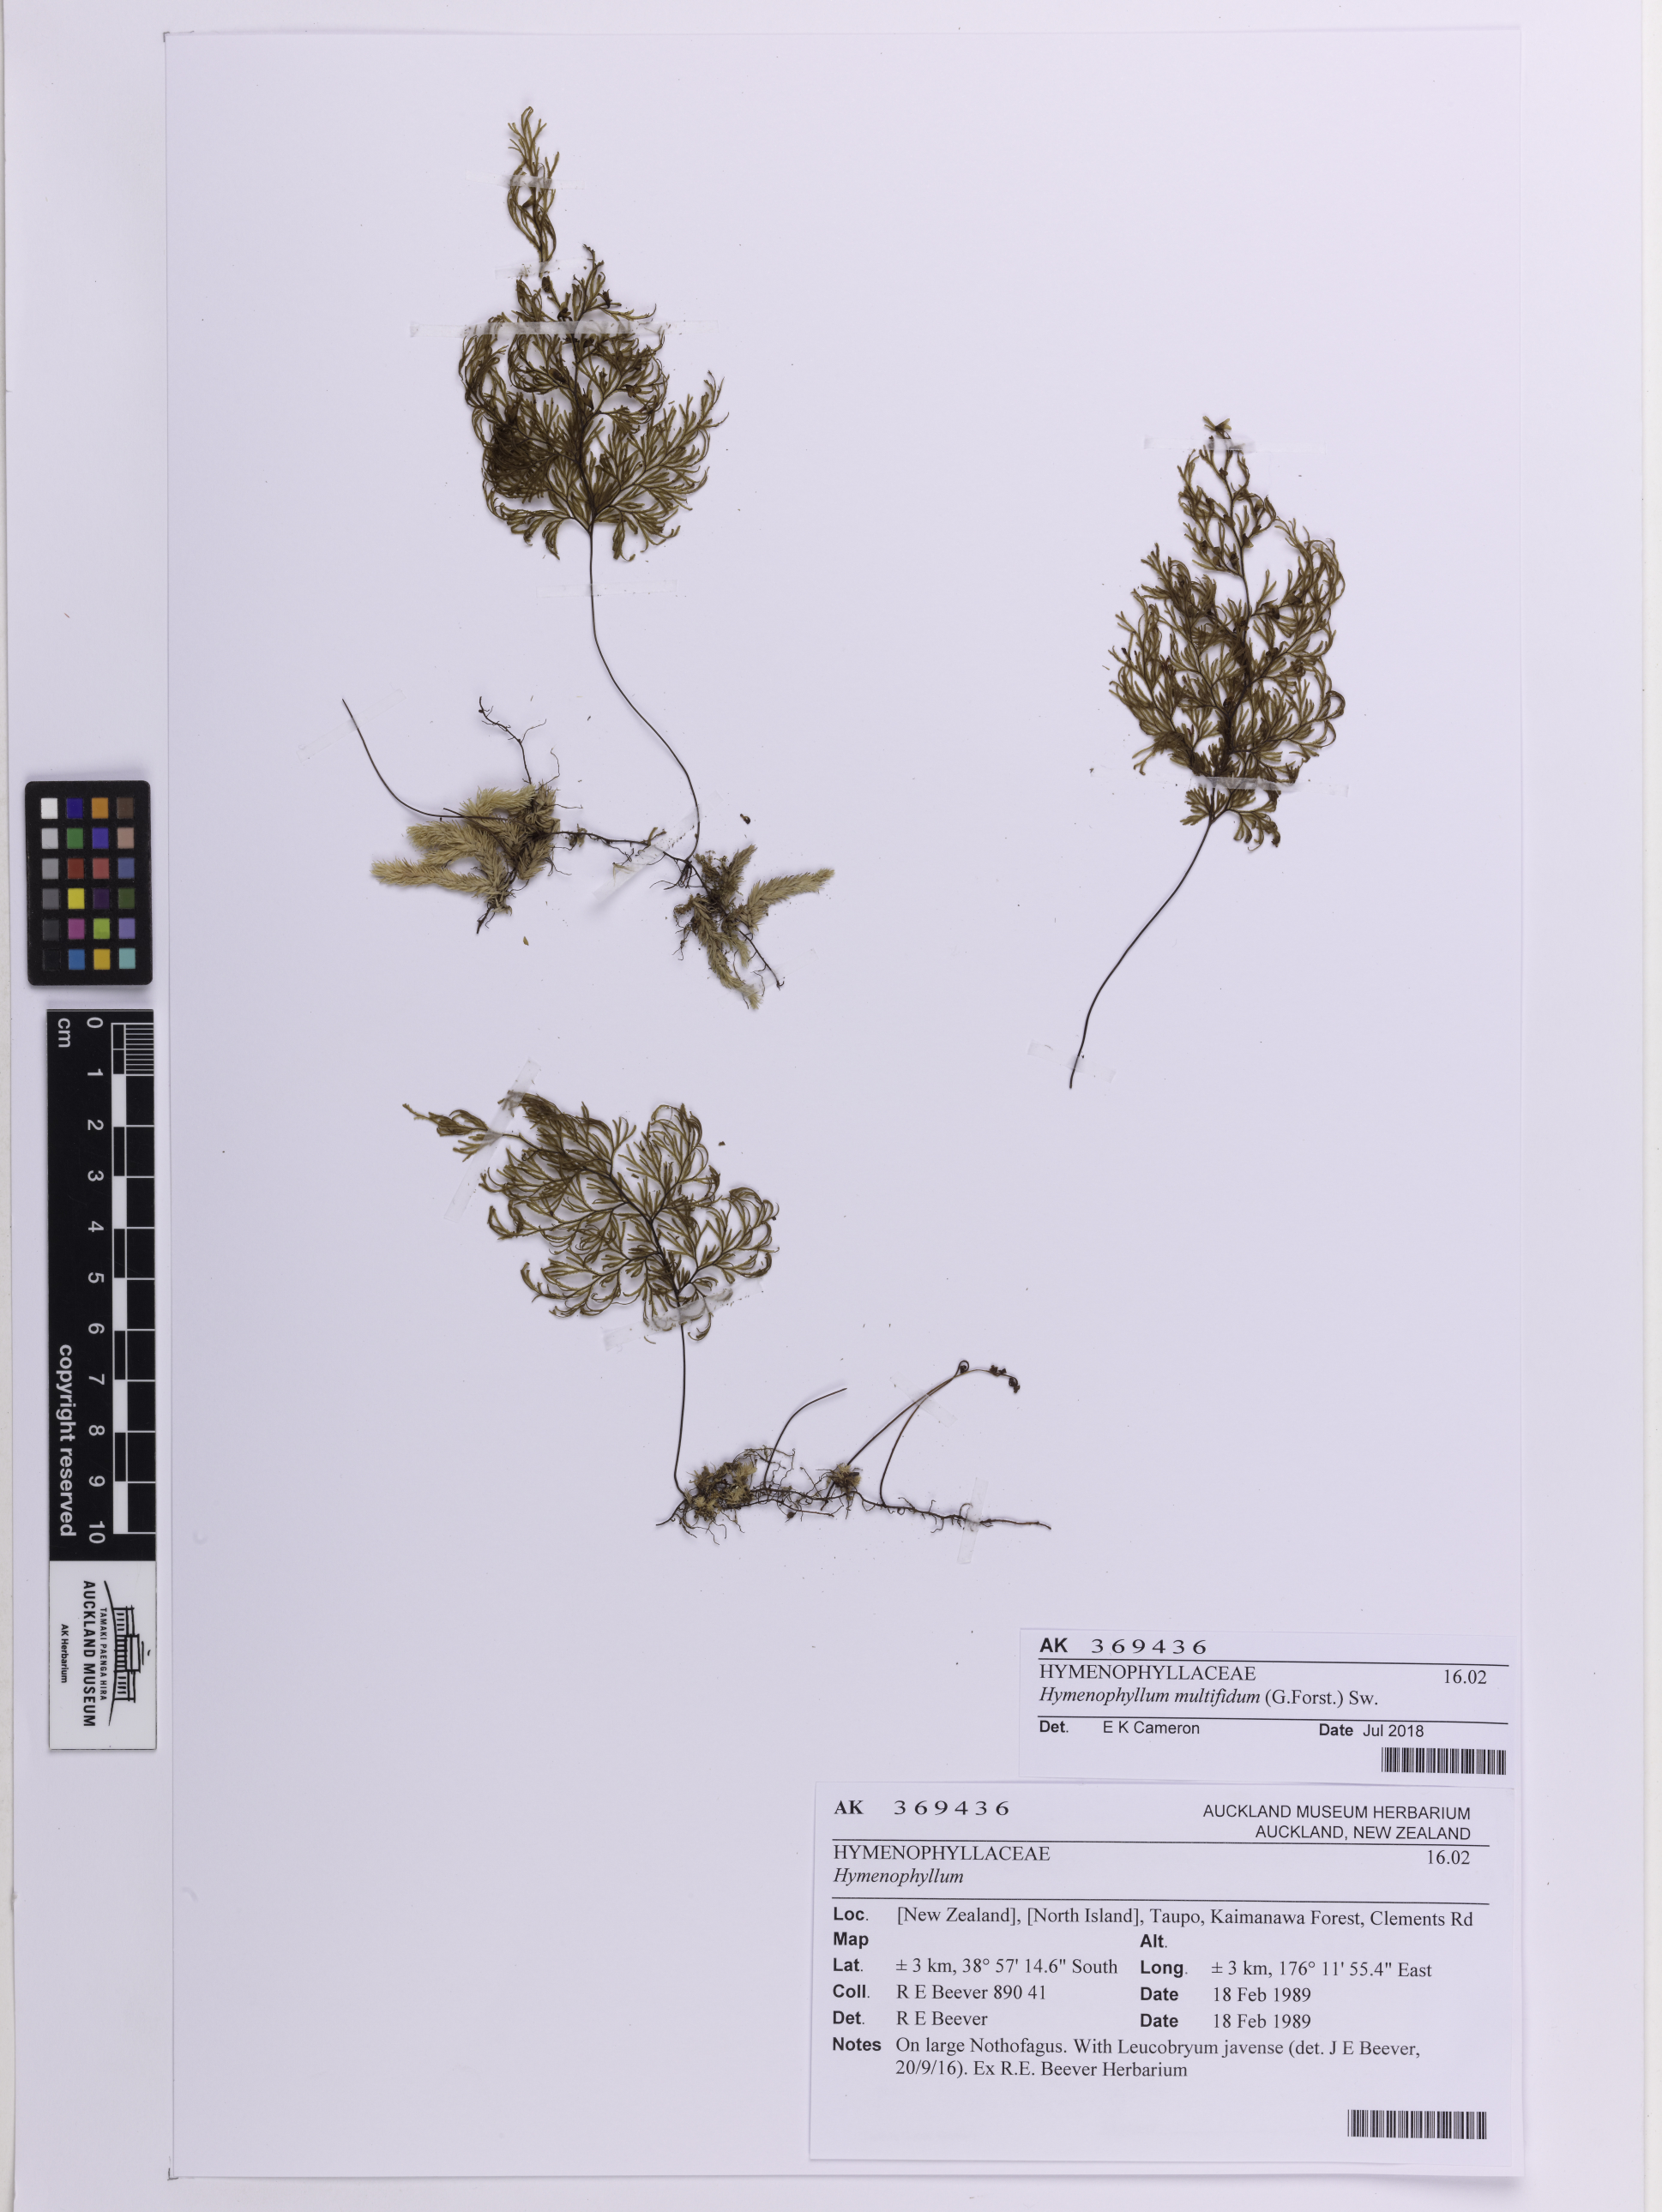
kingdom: Plantae
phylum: Tracheophyta
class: Polypodiopsida
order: Hymenophyllales
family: Hymenophyllaceae
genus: Hymenophyllum
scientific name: Hymenophyllum multifidum
